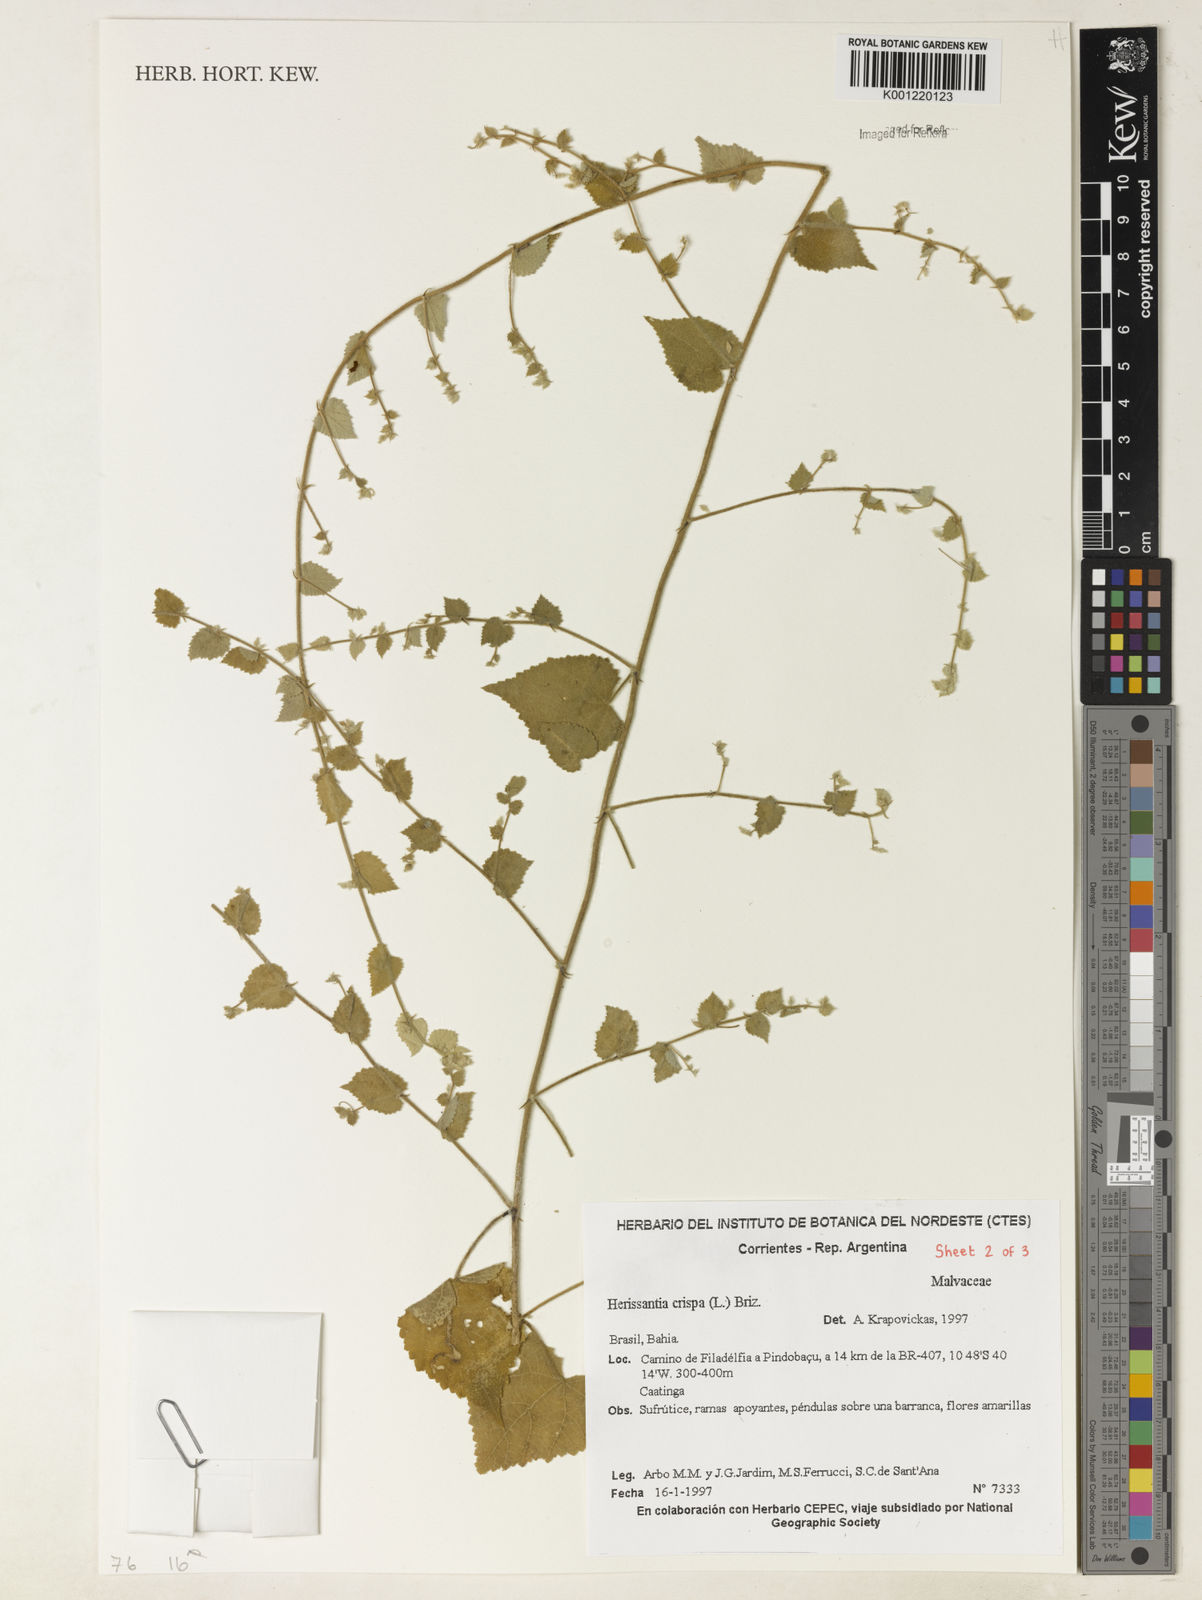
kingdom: Plantae
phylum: Tracheophyta
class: Magnoliopsida
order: Malvales
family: Malvaceae
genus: Herissantia
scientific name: Herissantia crispa
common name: Bladdermallow
